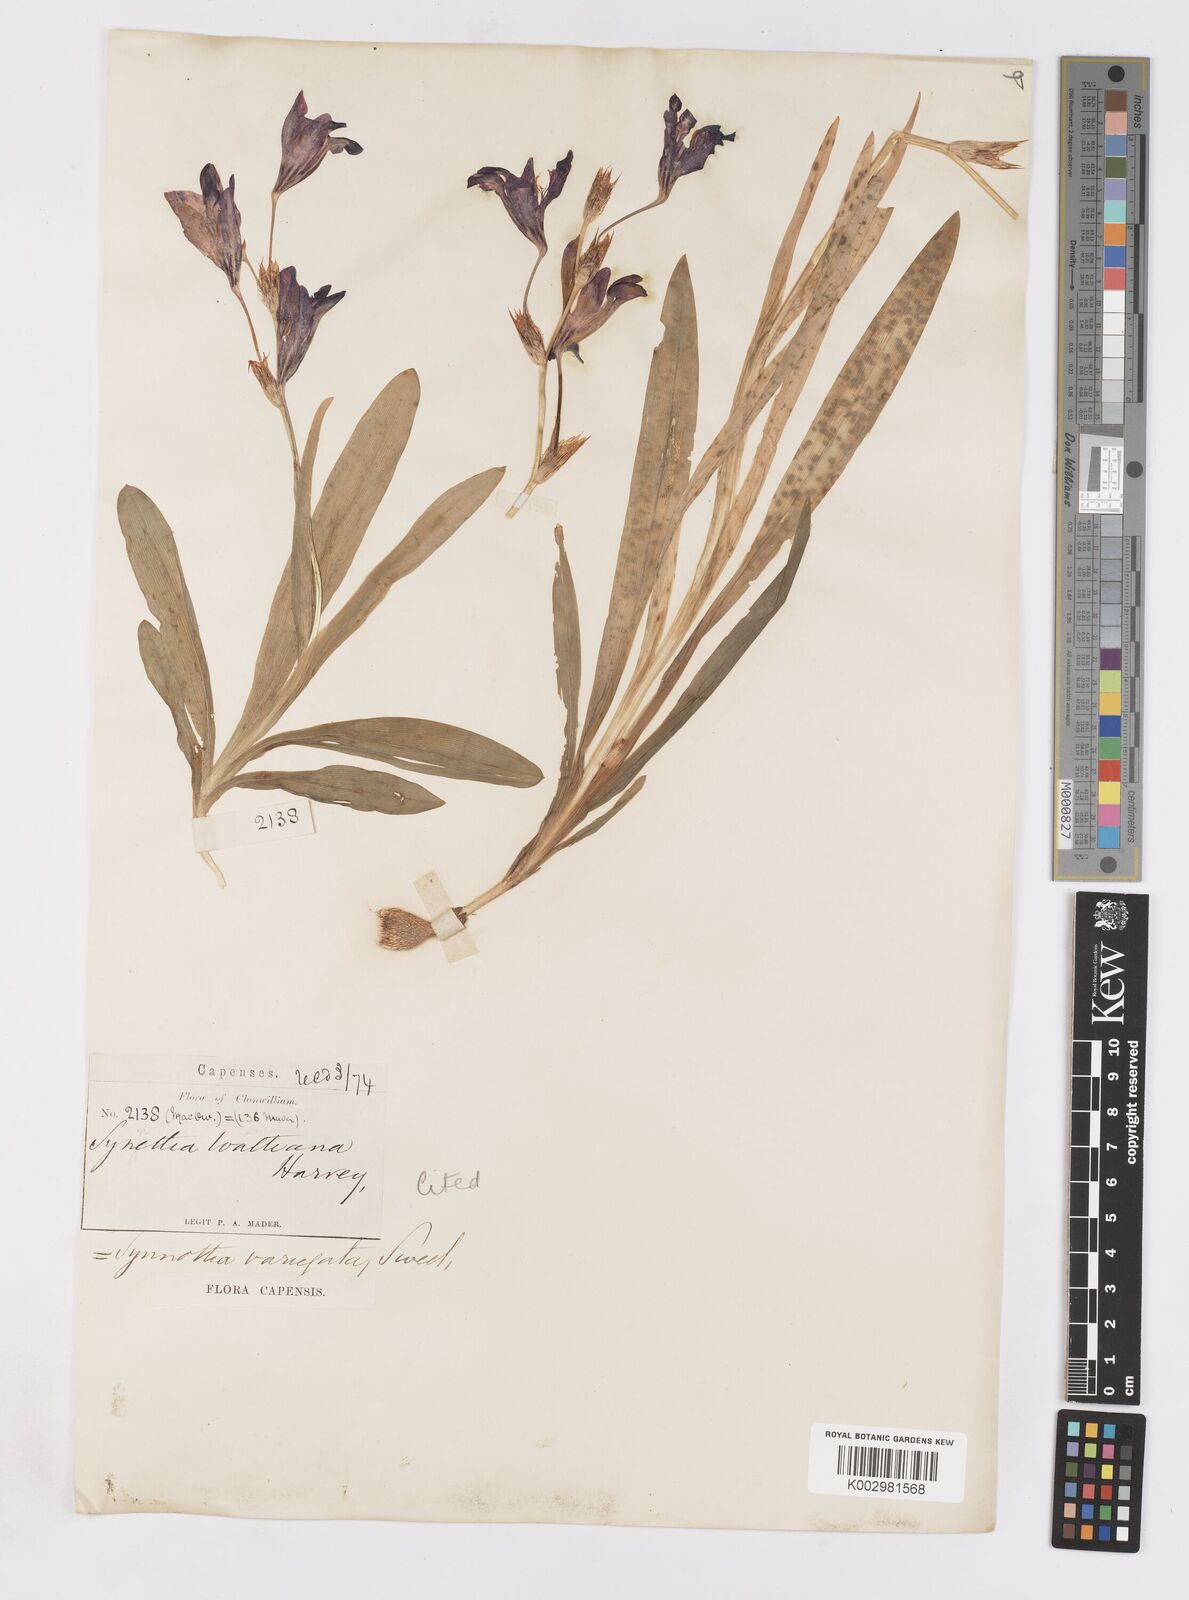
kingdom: Plantae
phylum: Tracheophyta
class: Liliopsida
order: Asparagales
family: Iridaceae
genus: Sparaxis
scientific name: Sparaxis variegata
